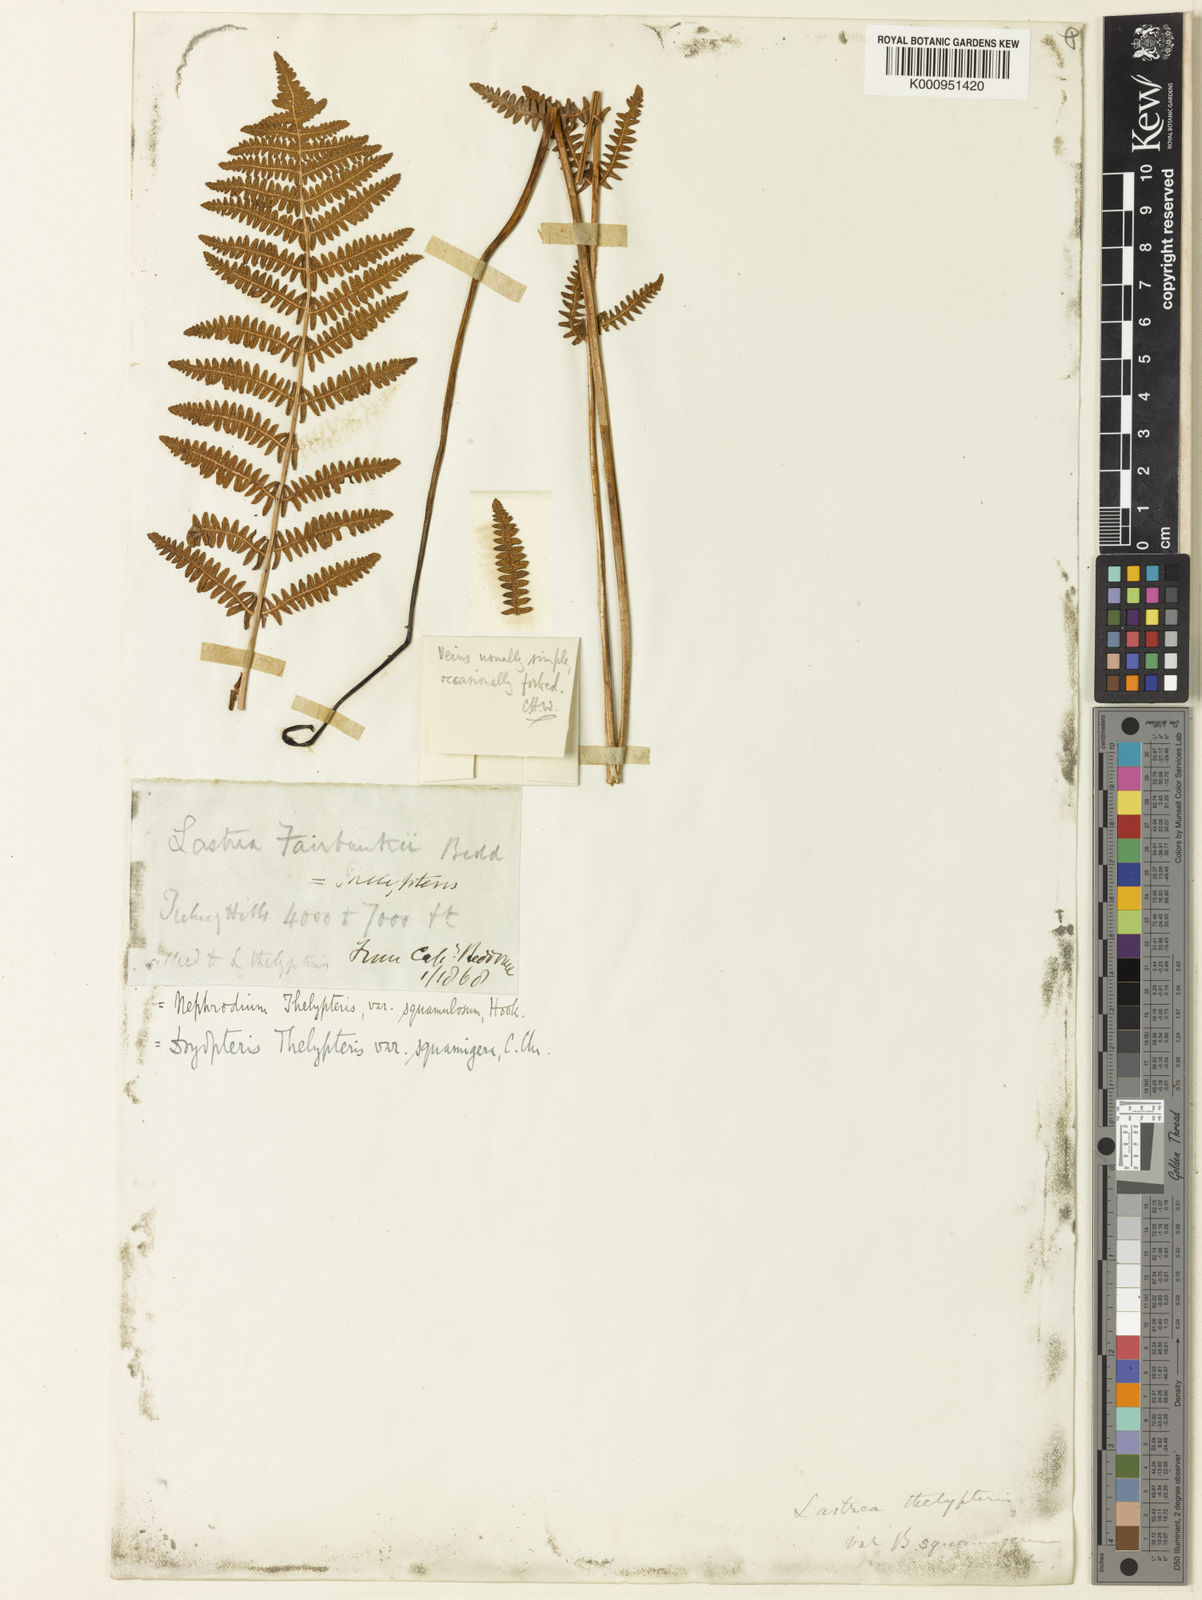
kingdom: Plantae
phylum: Tracheophyta
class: Polypodiopsida
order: Polypodiales
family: Thelypteridaceae
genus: Thelypteris
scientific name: Thelypteris confluens
